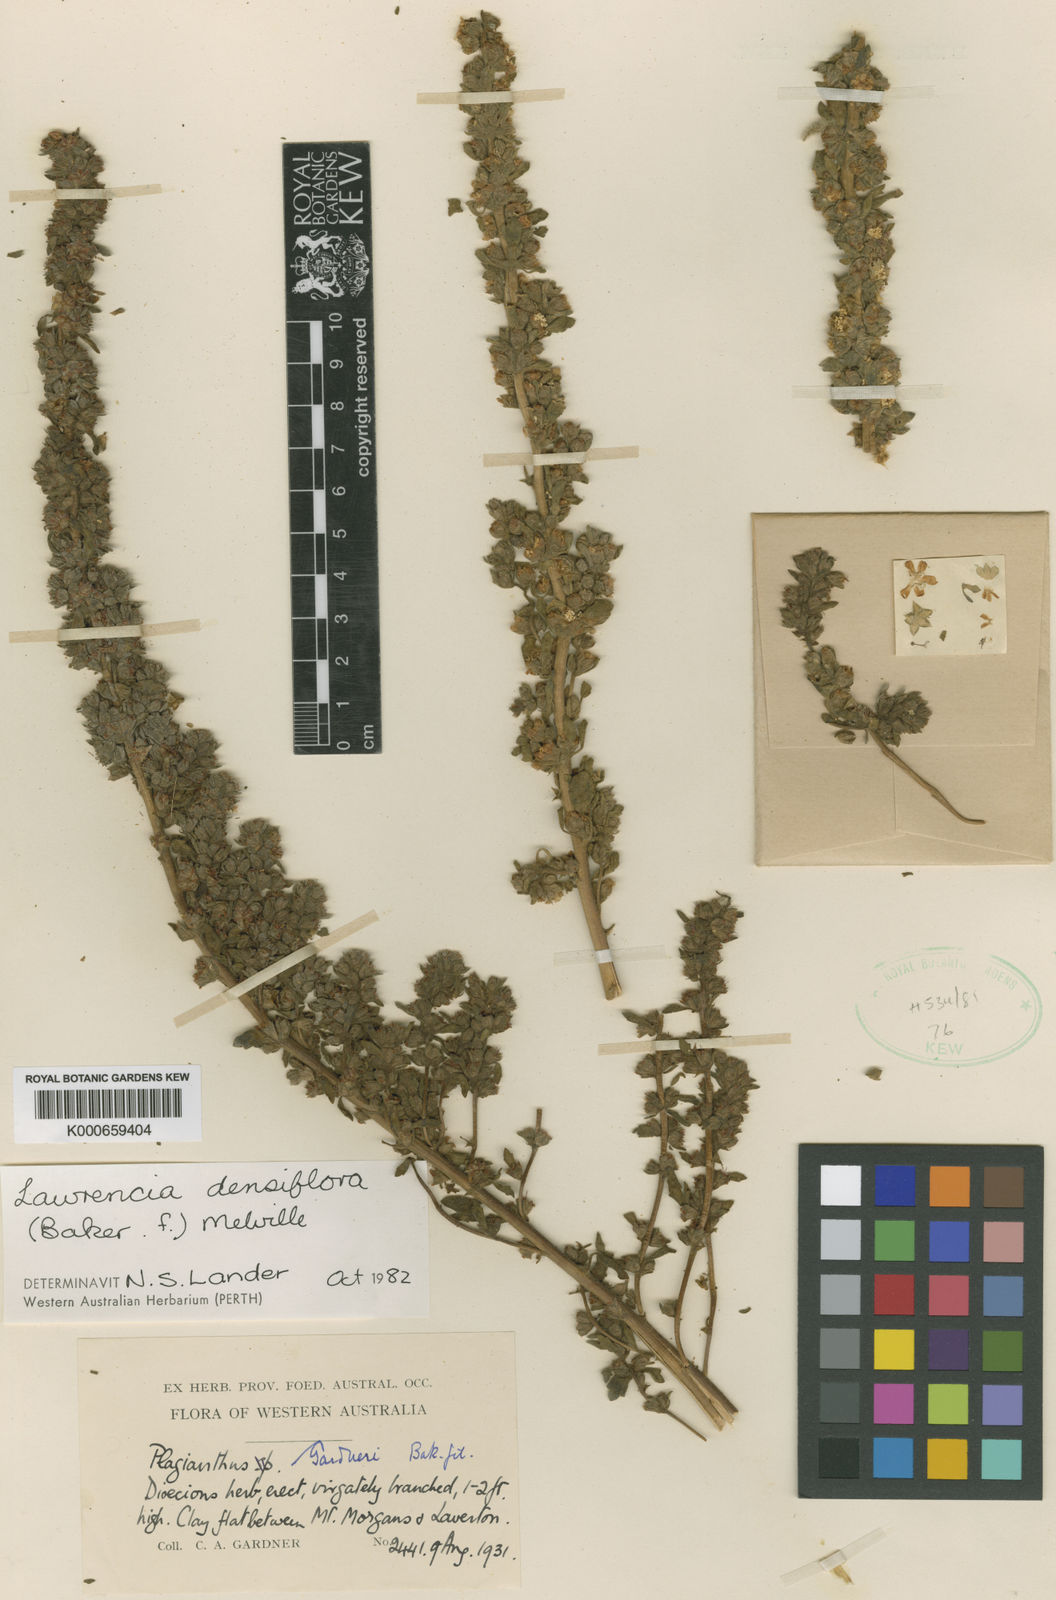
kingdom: Plantae
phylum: Tracheophyta
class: Magnoliopsida
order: Malvales
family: Malvaceae
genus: Lawrencia
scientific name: Lawrencia densiflora
